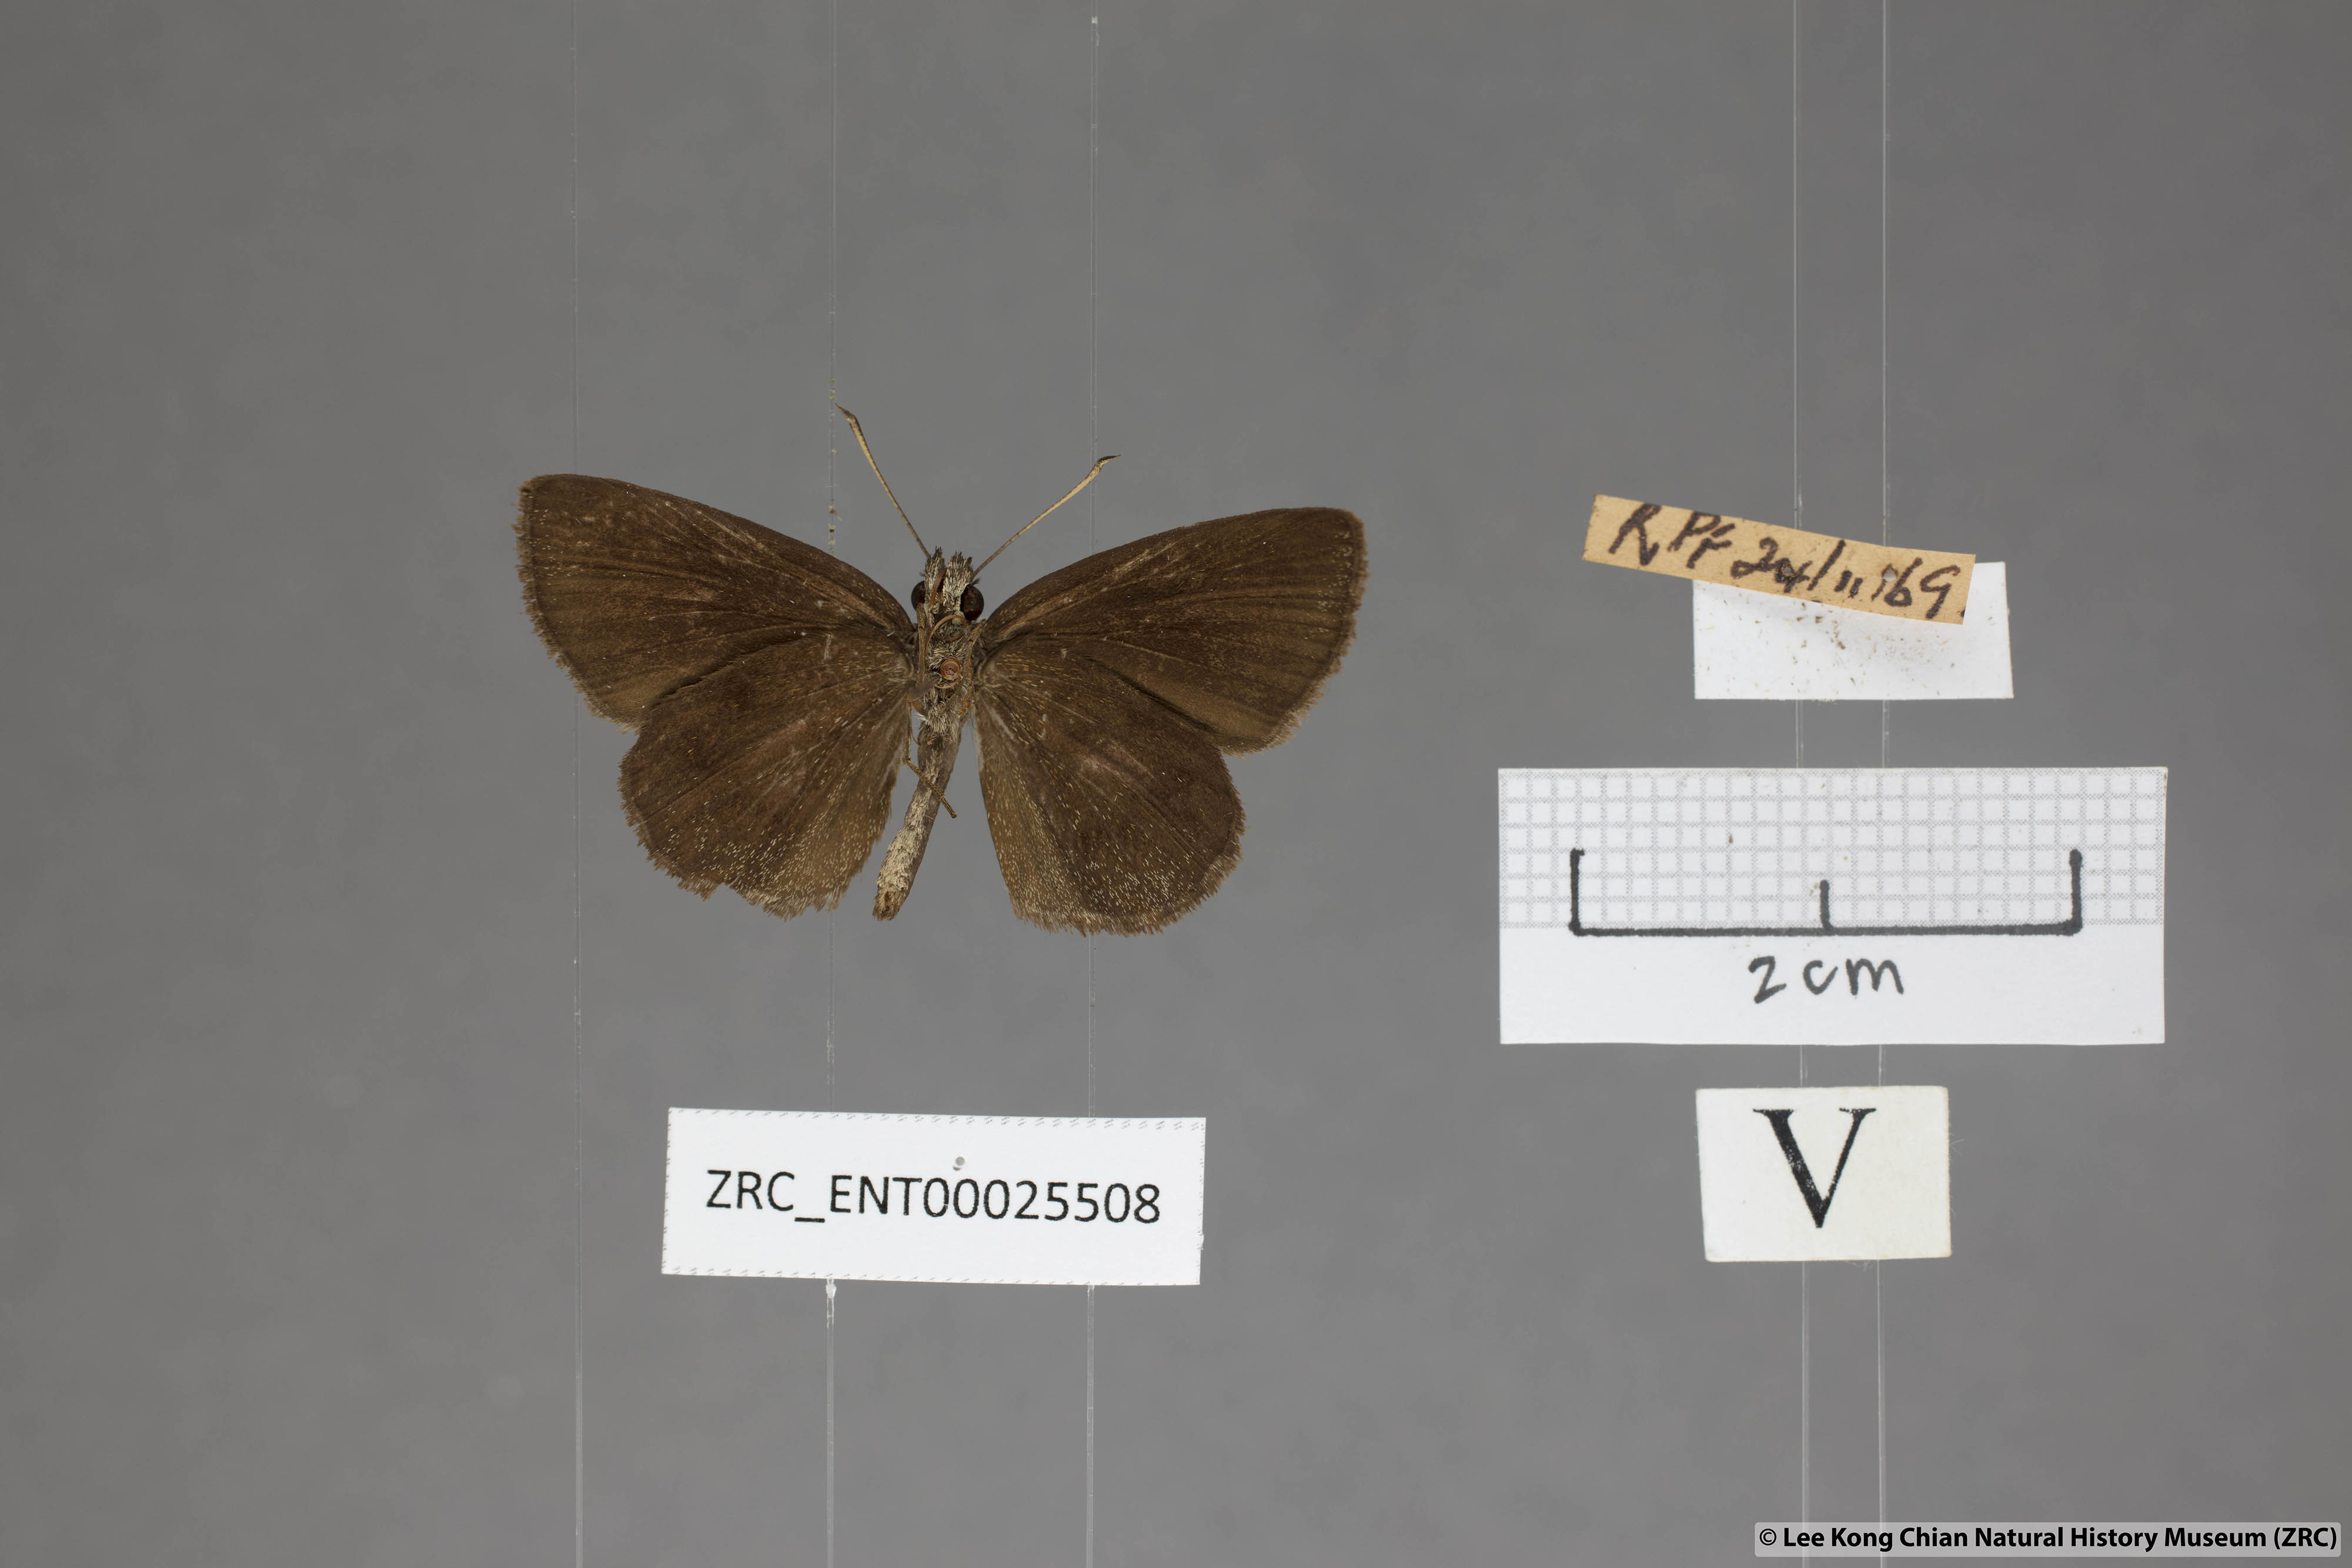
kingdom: Animalia
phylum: Arthropoda
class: Insecta
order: Lepidoptera
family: Hesperiidae
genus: Psolos
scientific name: Psolos fuligo
